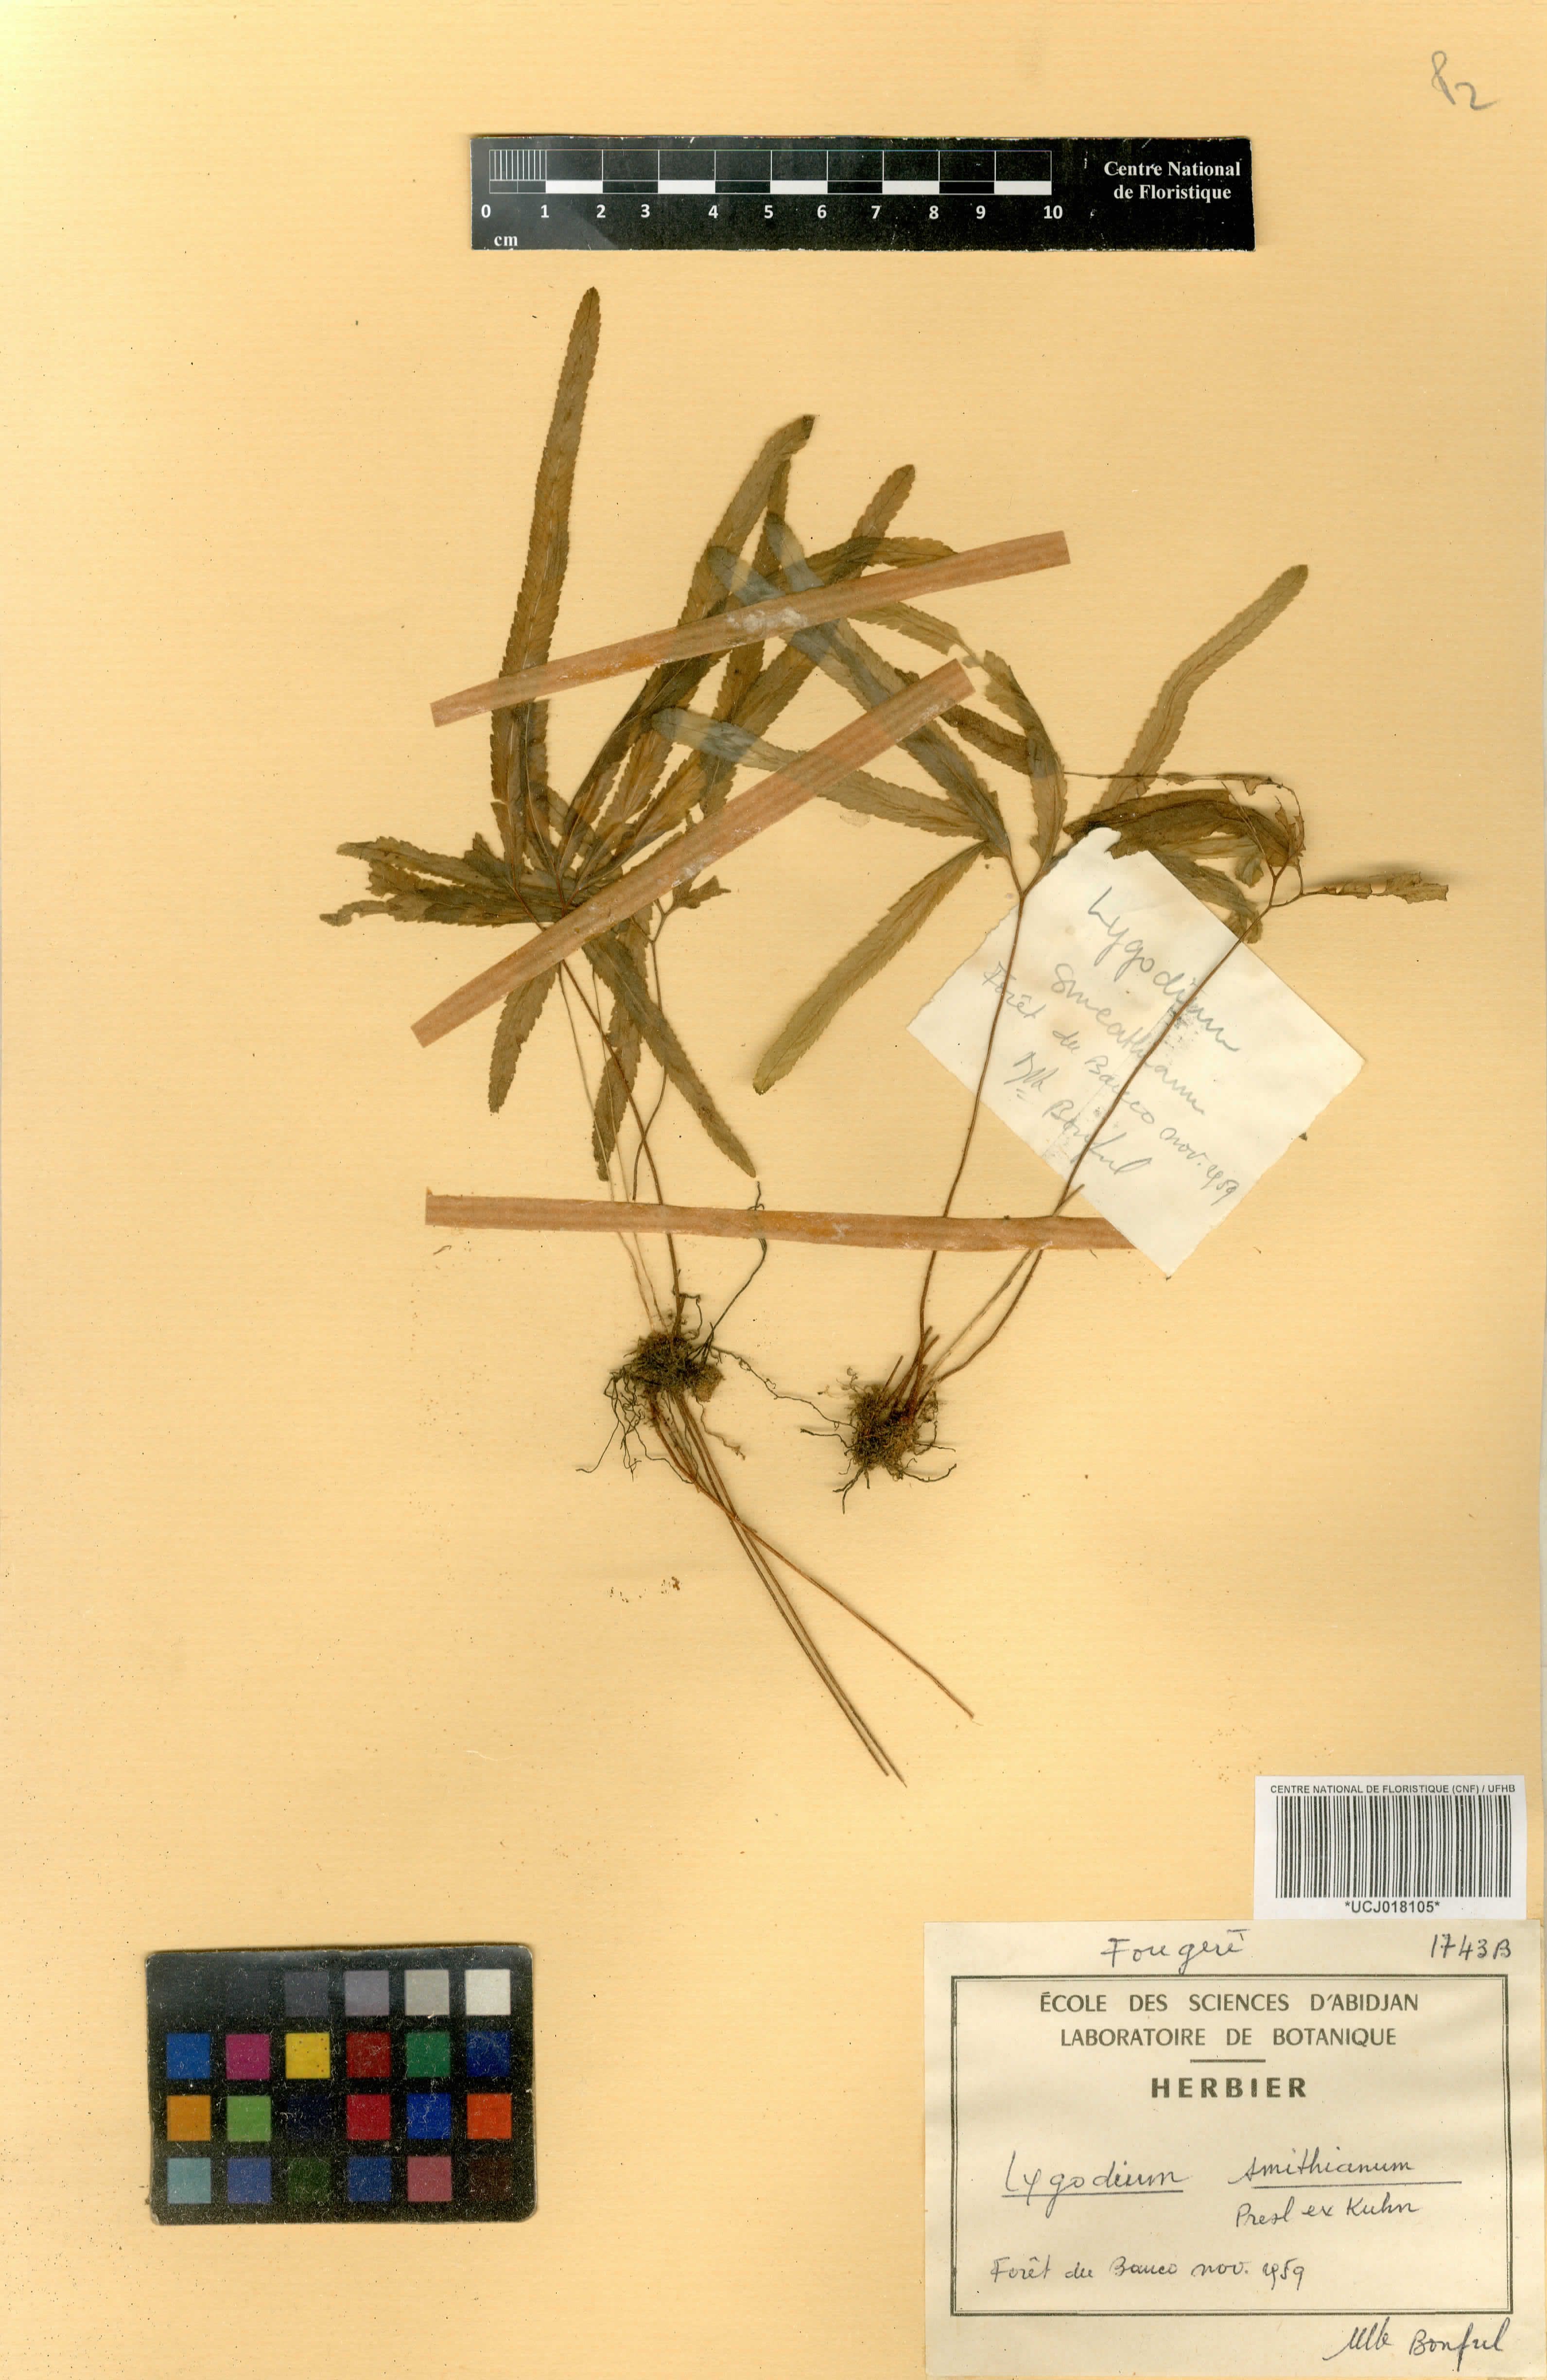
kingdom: Plantae
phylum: Tracheophyta
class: Polypodiopsida
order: Schizaeales
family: Lygodiaceae
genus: Lygodium
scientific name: Lygodium smithianum
